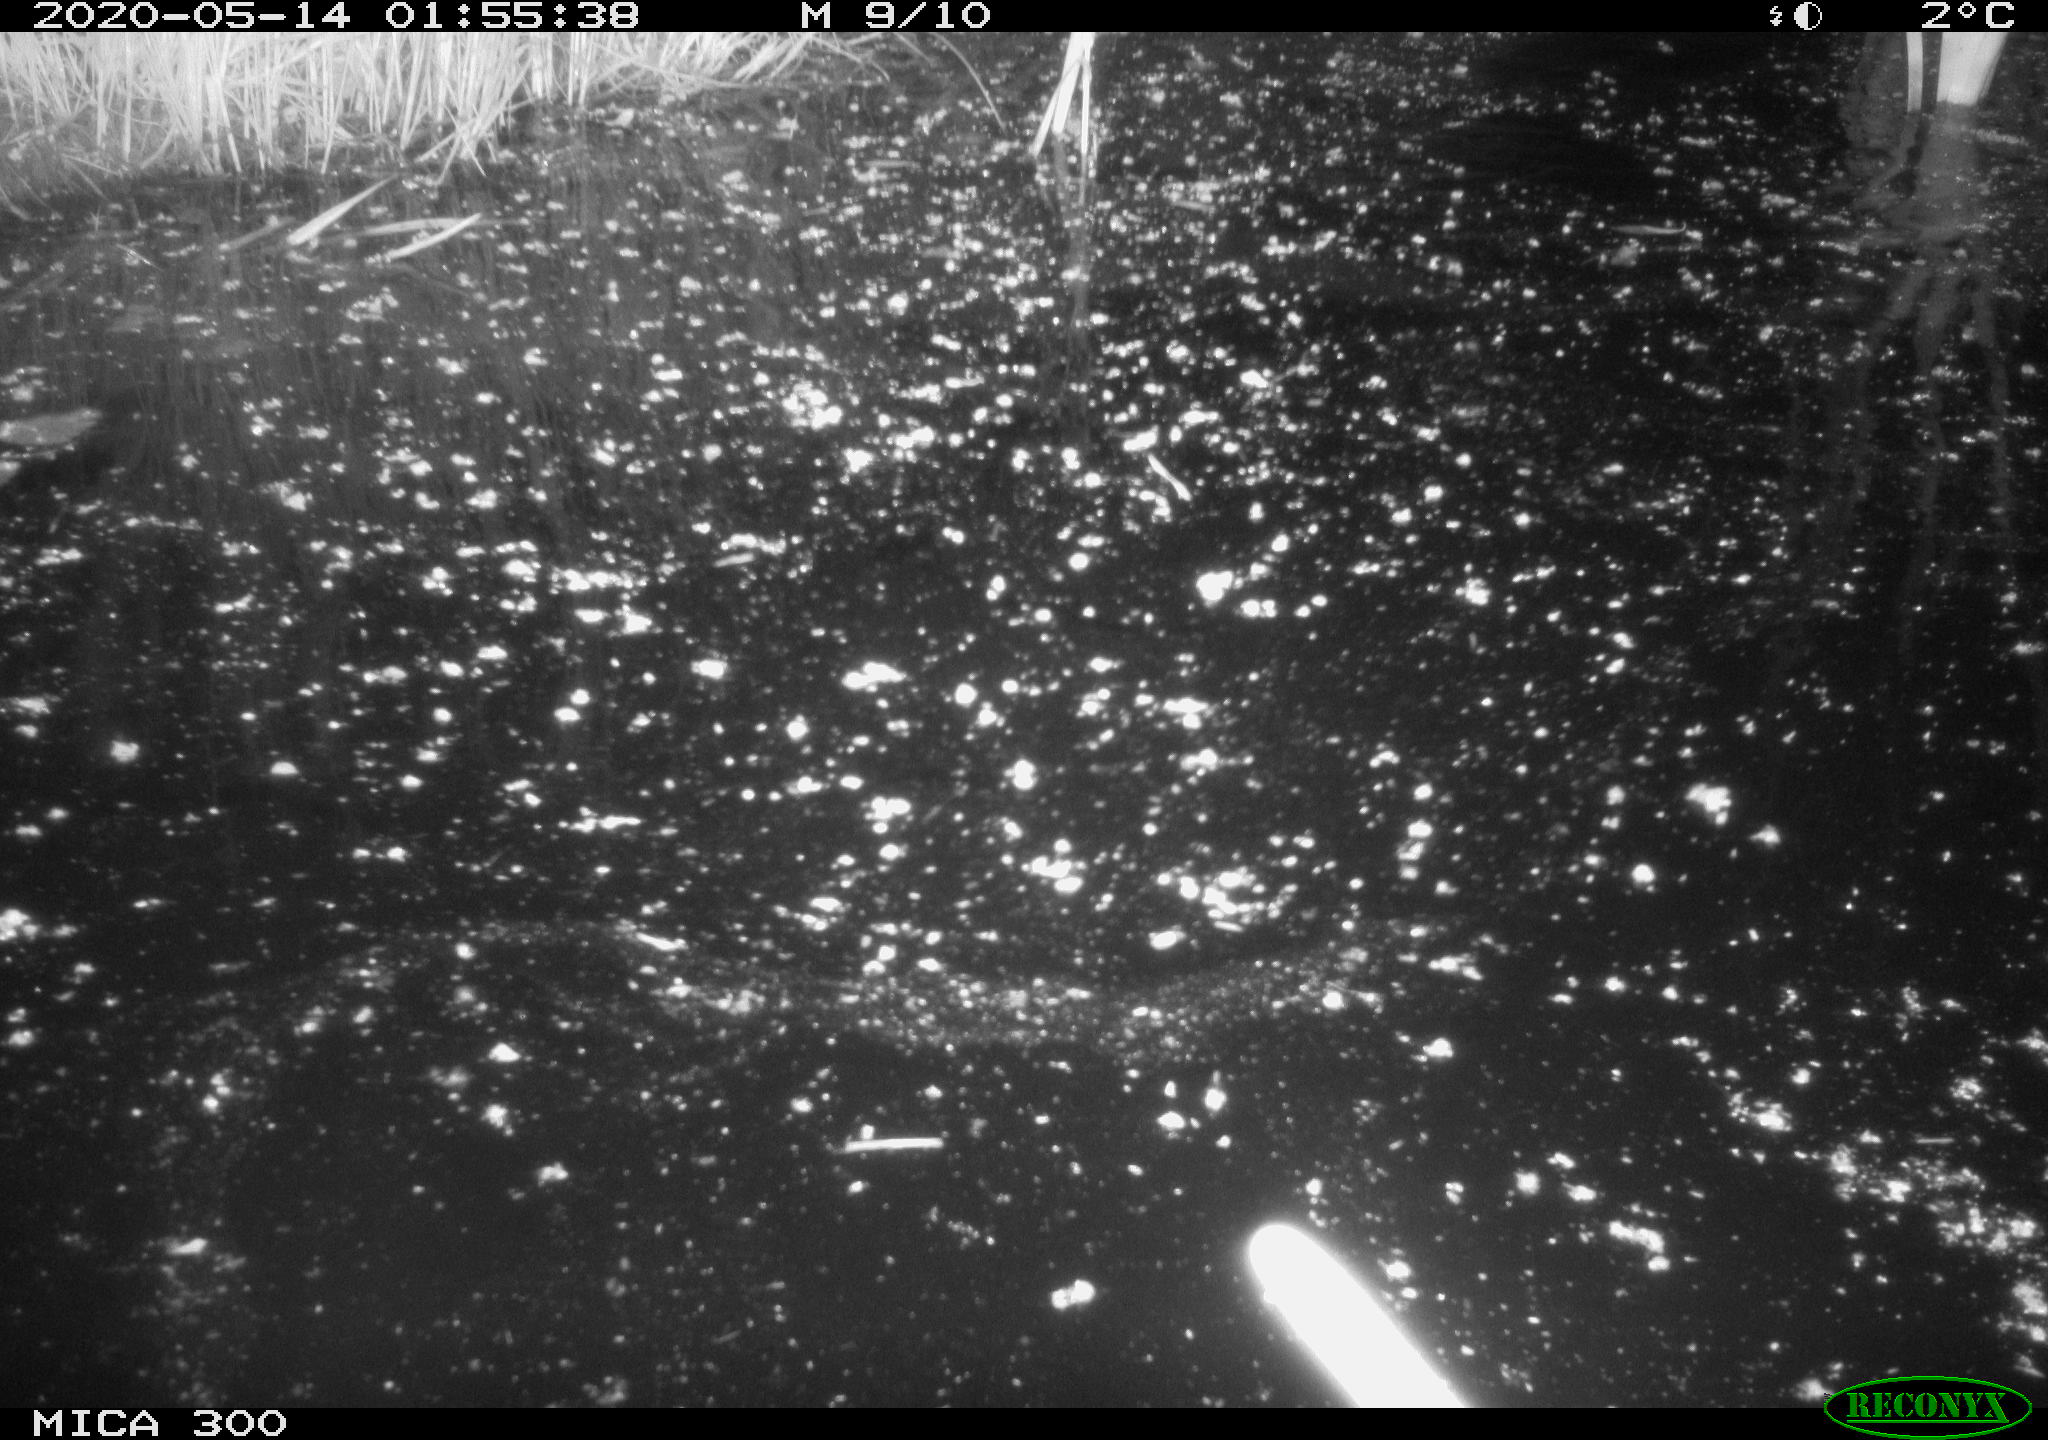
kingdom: Animalia
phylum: Chordata
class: Mammalia
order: Rodentia
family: Castoridae
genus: Castor
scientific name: Castor fiber
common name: Eurasian beaver
